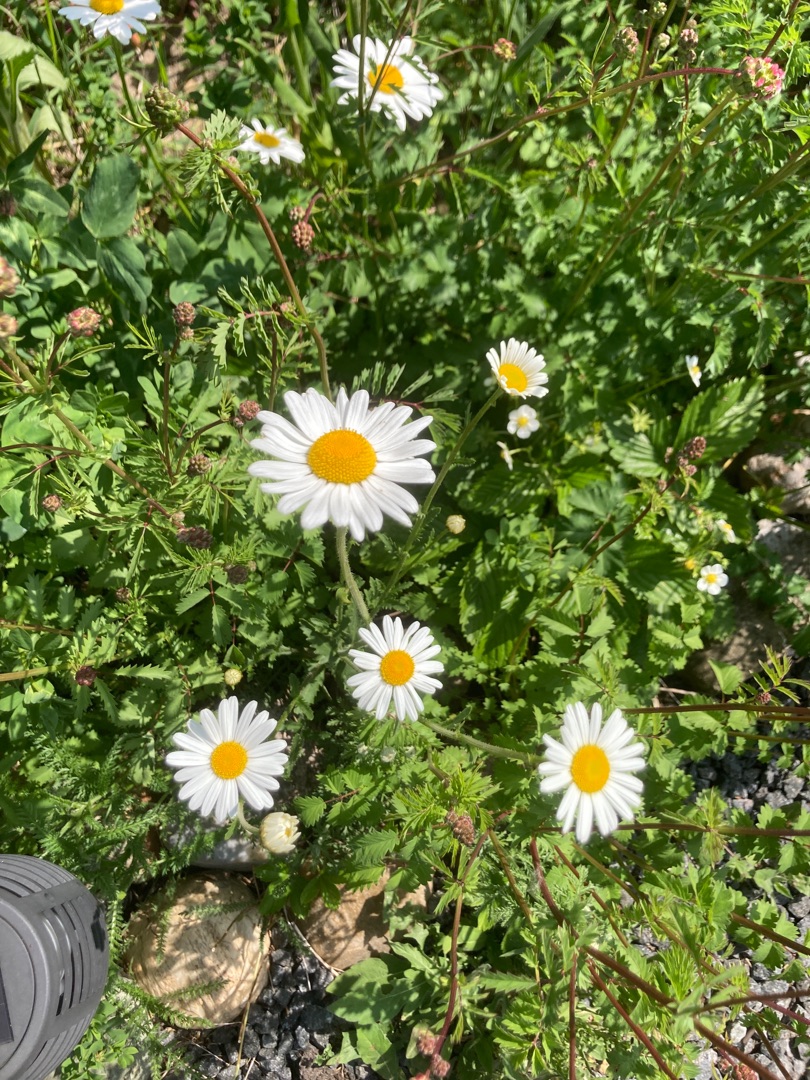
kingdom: Plantae
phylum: Tracheophyta
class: Magnoliopsida
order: Asterales
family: Asteraceae
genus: Leucanthemum
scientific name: Leucanthemum vulgare
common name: Hvid okseøje
